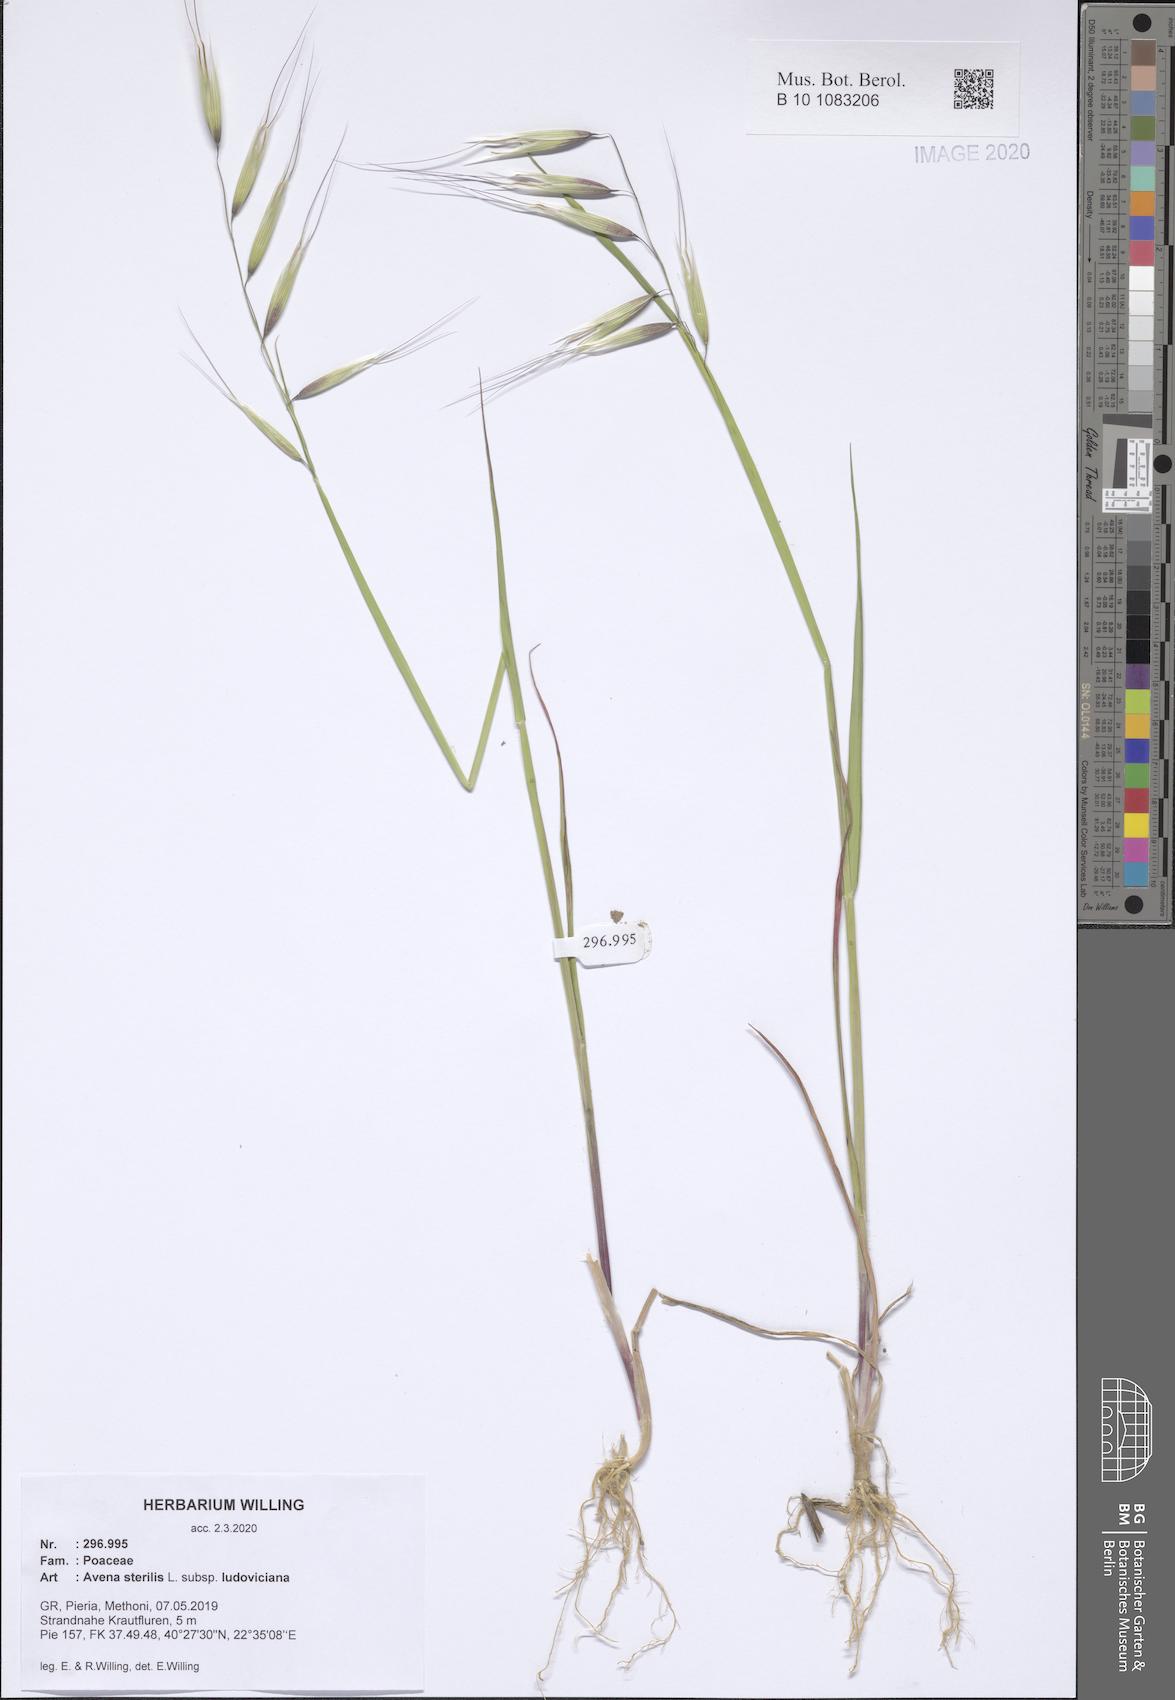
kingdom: Plantae
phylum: Tracheophyta
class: Liliopsida
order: Poales
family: Poaceae
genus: Avena
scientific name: Avena sterilis
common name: Animated oat
